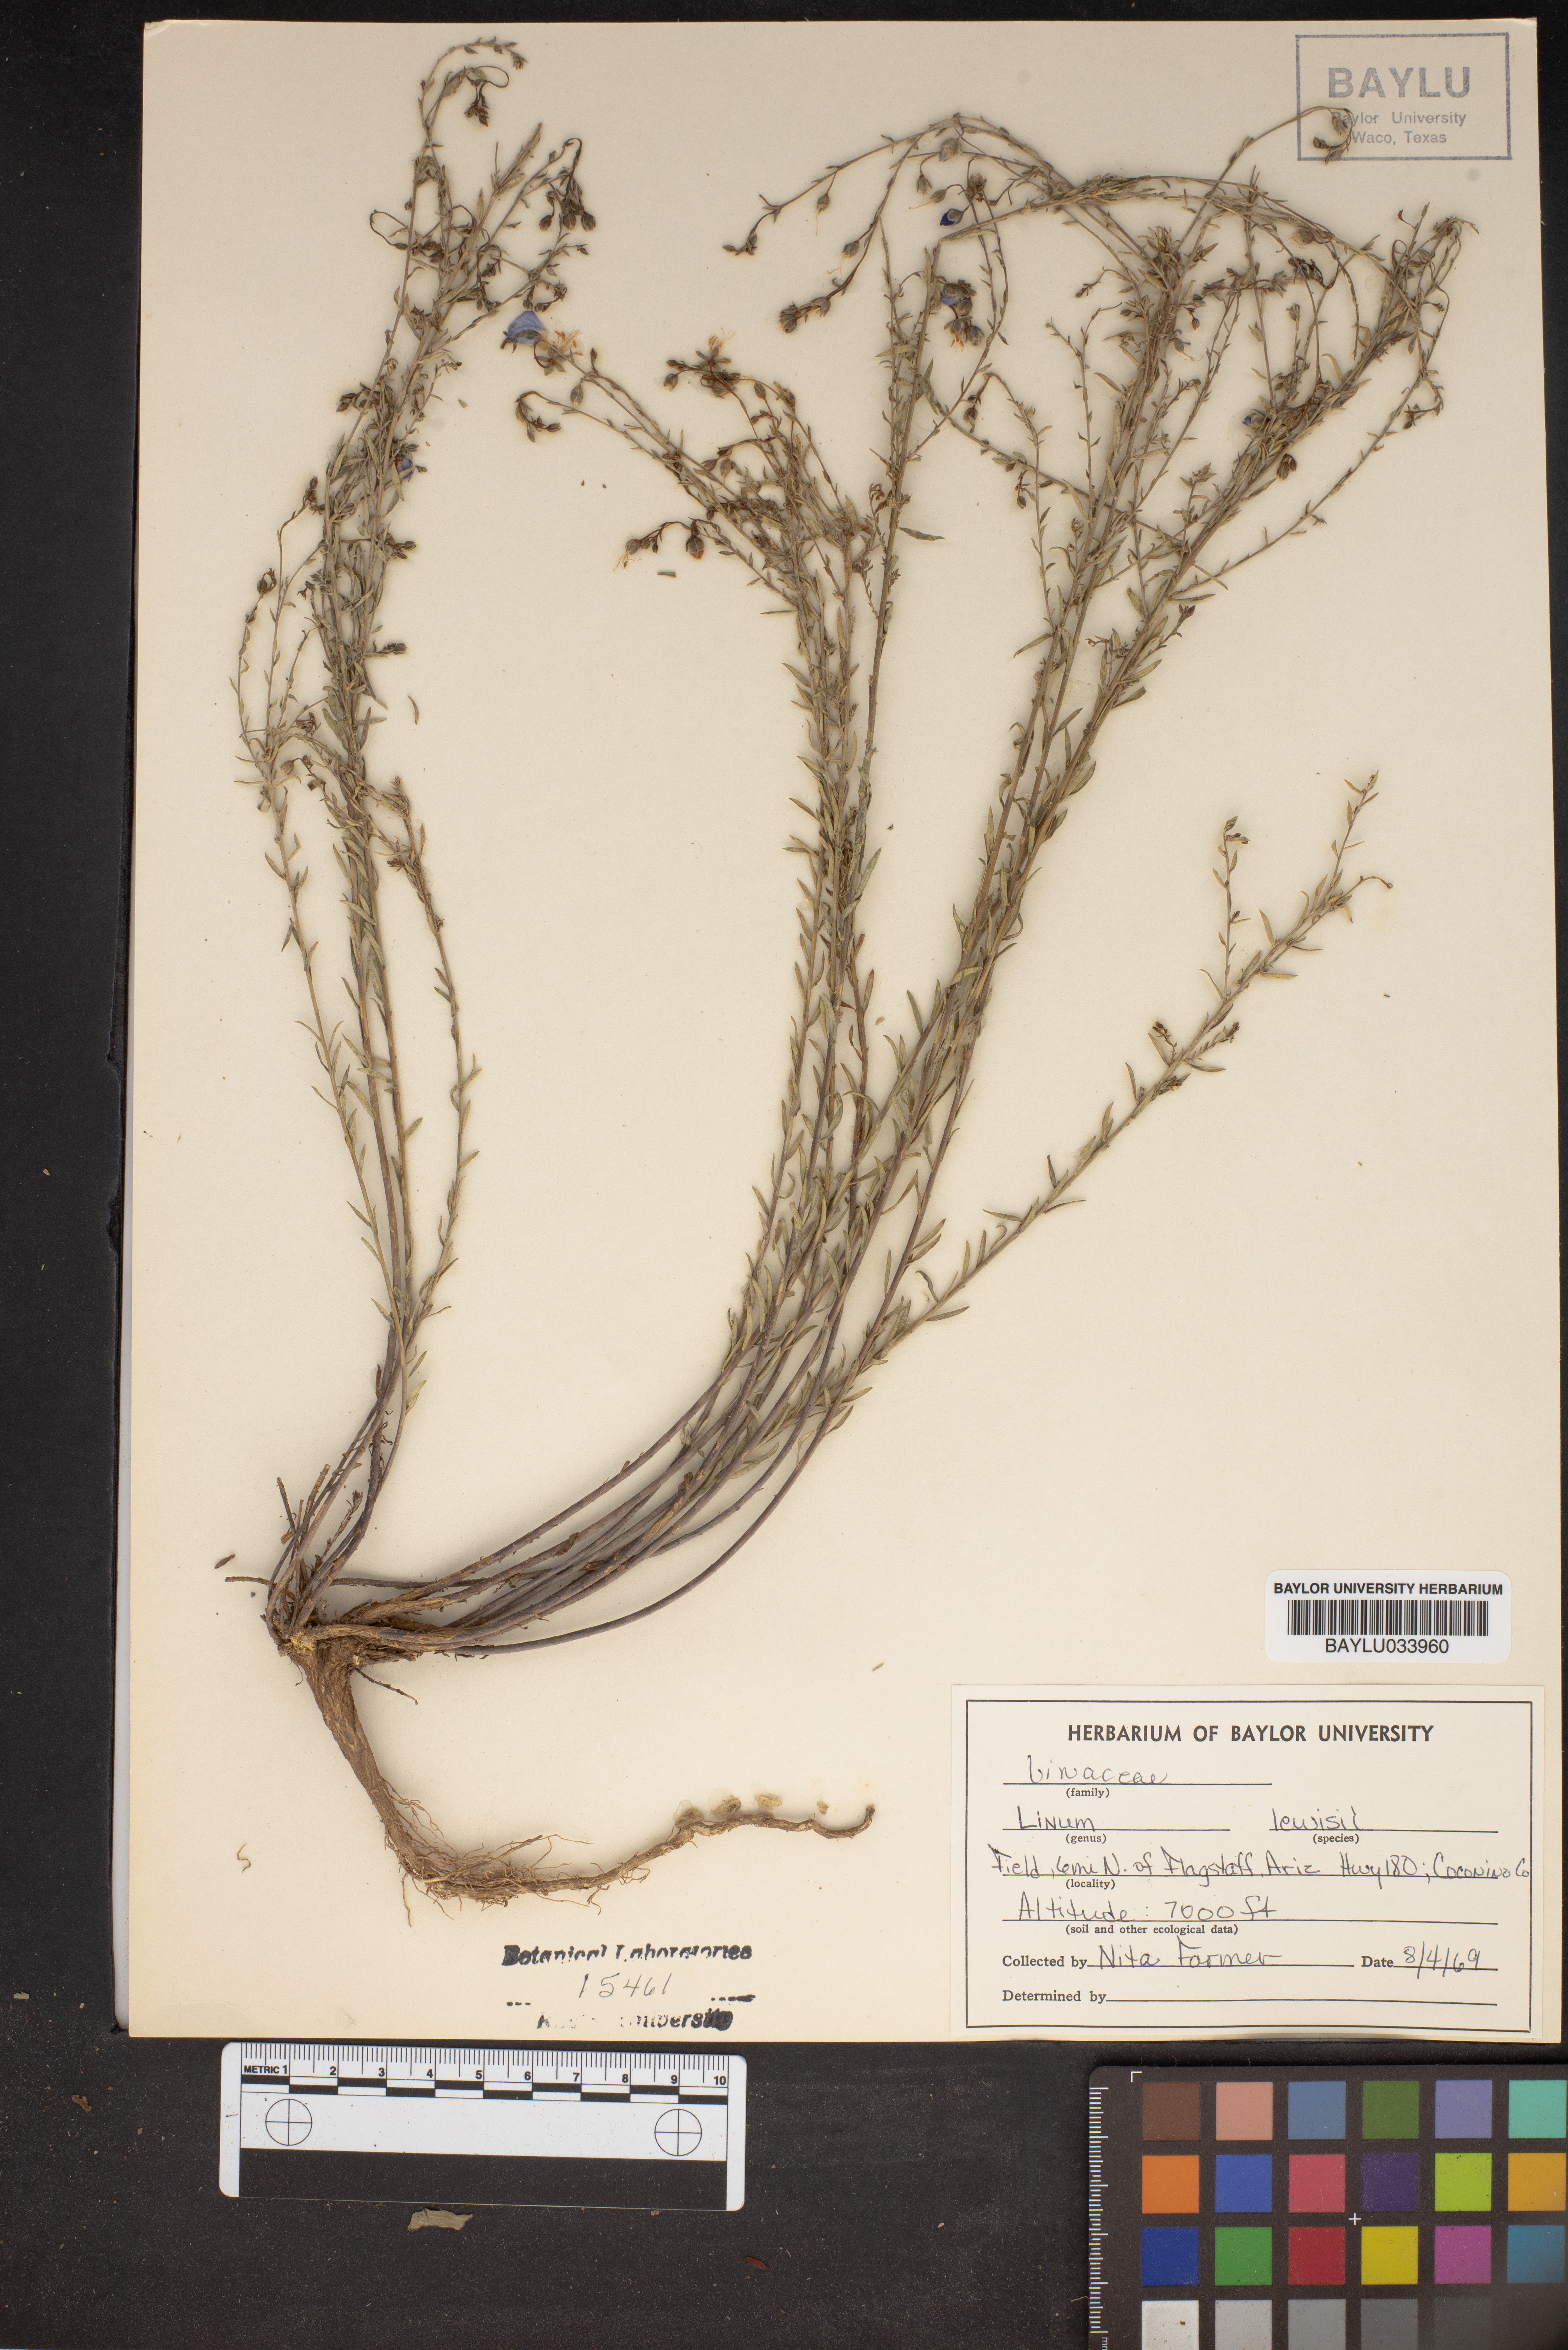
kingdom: Plantae
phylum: Tracheophyta
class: Magnoliopsida
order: Malpighiales
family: Linaceae
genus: Linum
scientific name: Linum lewisii
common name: Prairie flax
